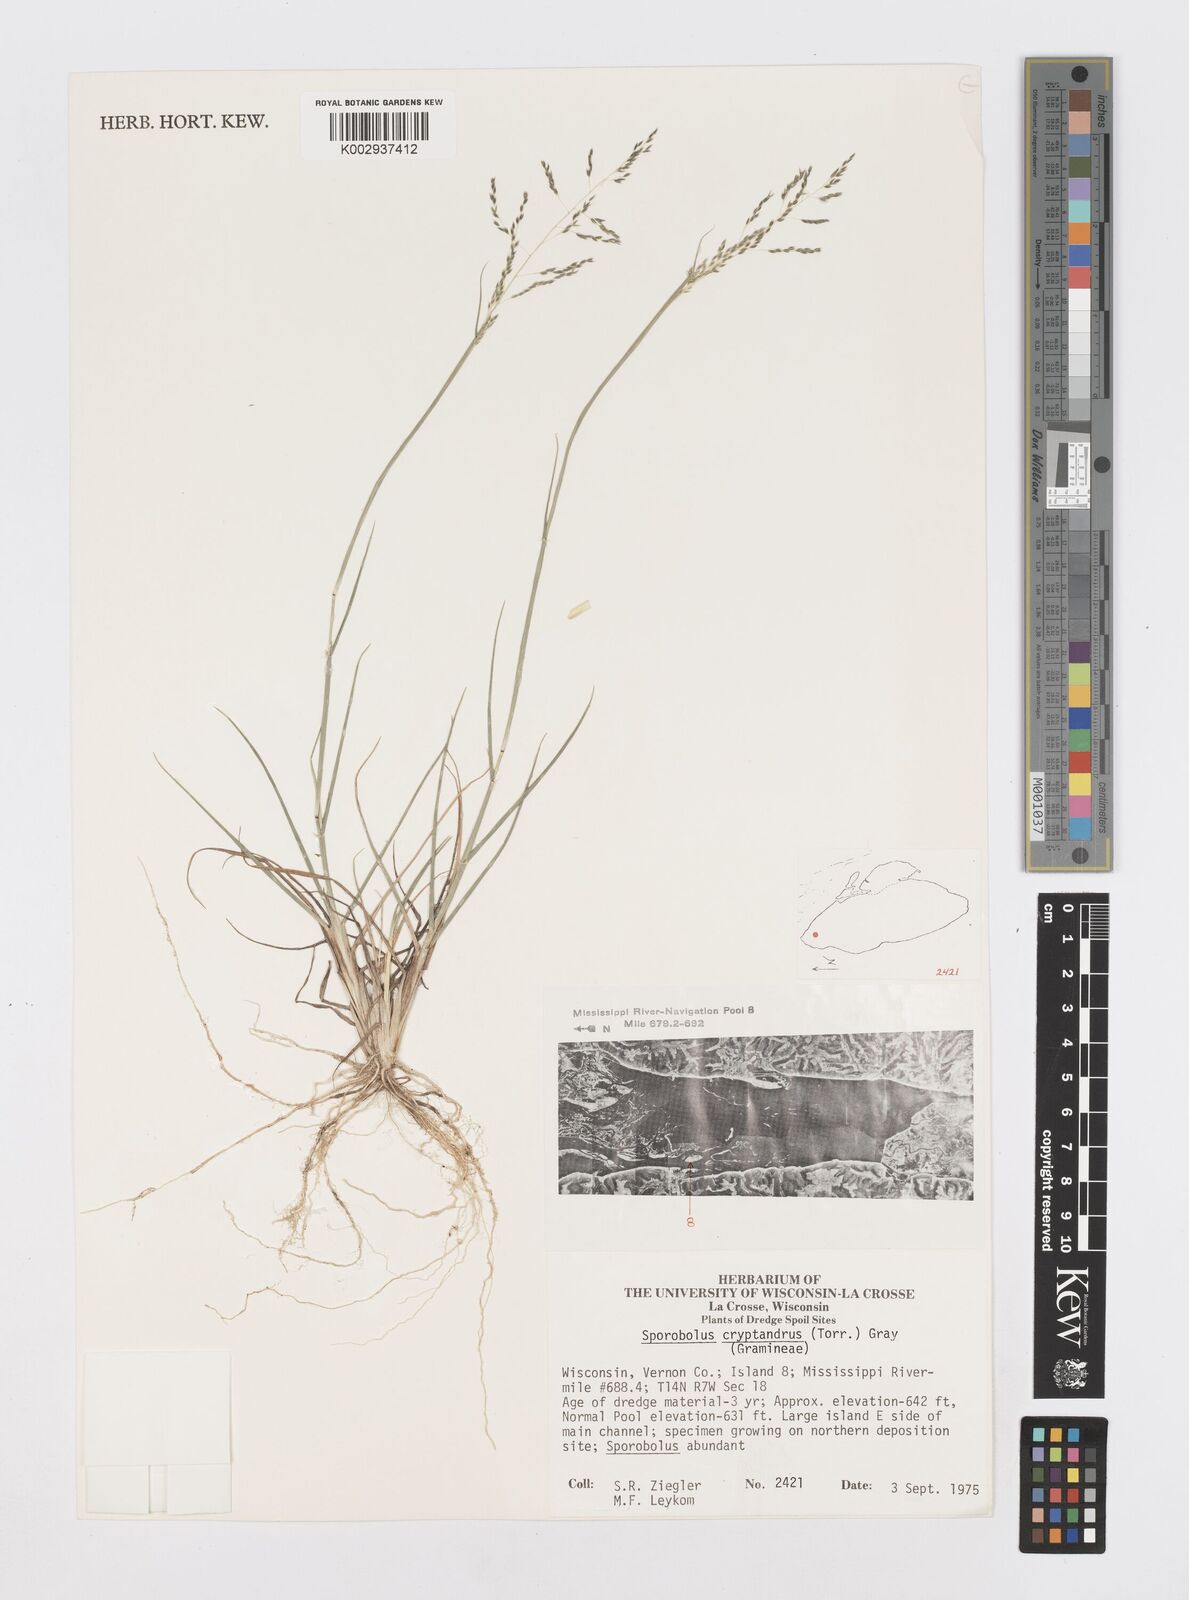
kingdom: Plantae
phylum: Tracheophyta
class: Liliopsida
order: Poales
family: Poaceae
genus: Sporobolus
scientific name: Sporobolus cryptandrus
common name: Sand dropseed
